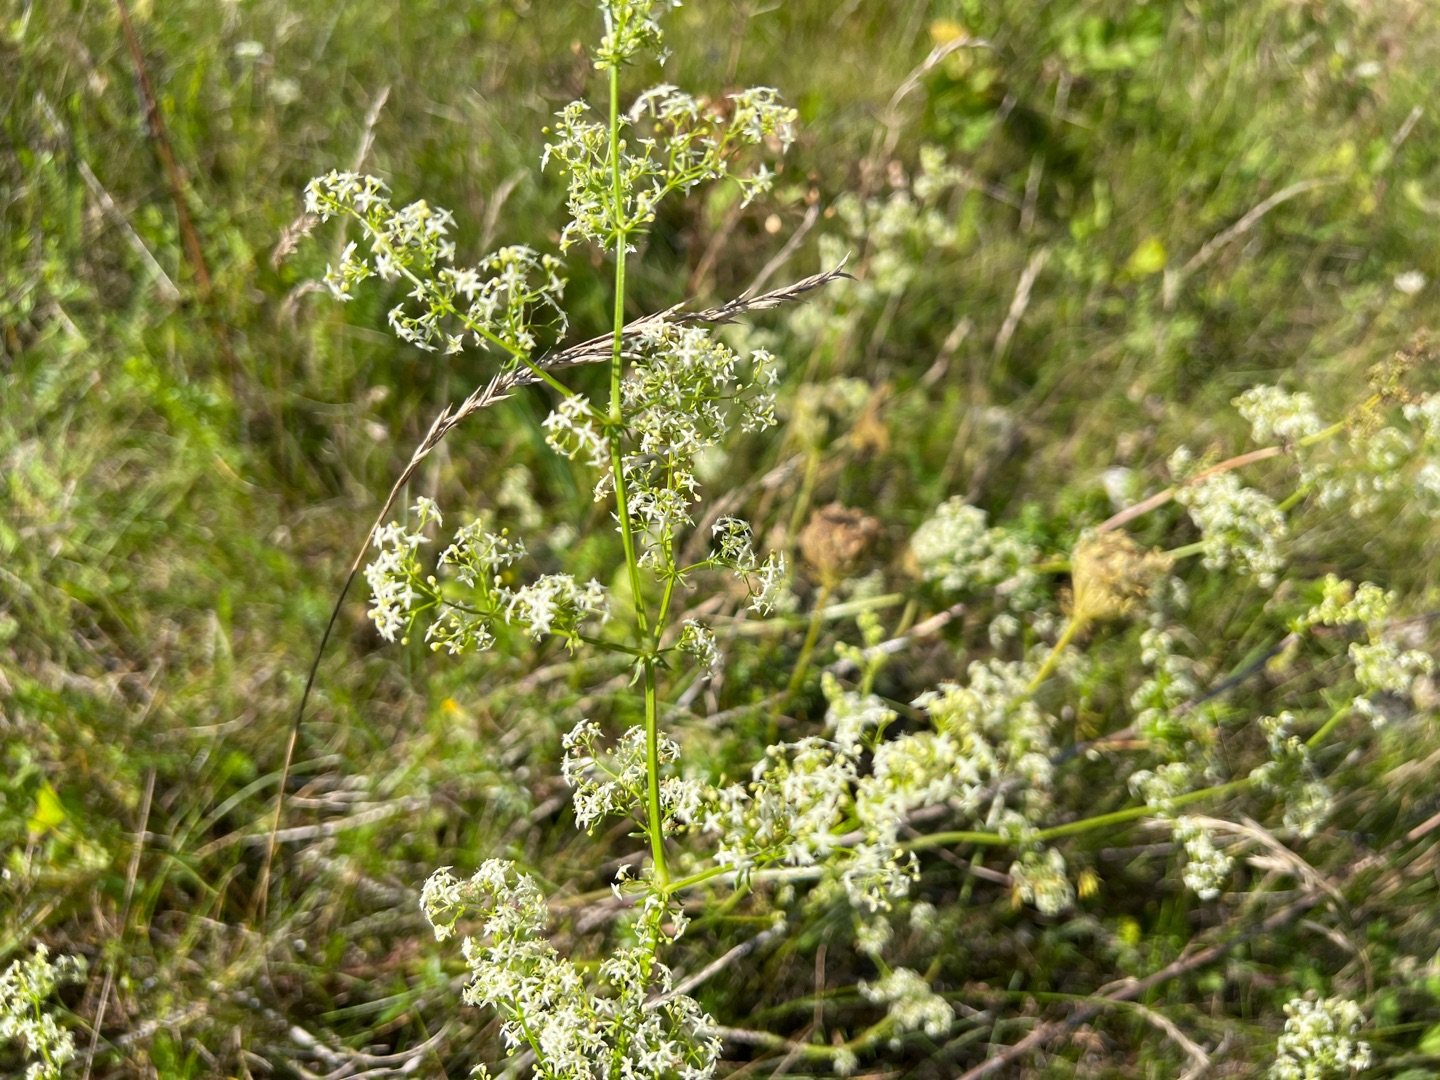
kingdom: Plantae
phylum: Tracheophyta
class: Magnoliopsida
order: Gentianales
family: Rubiaceae
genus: Galium
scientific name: Galium mollugo
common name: Hvid snerre
